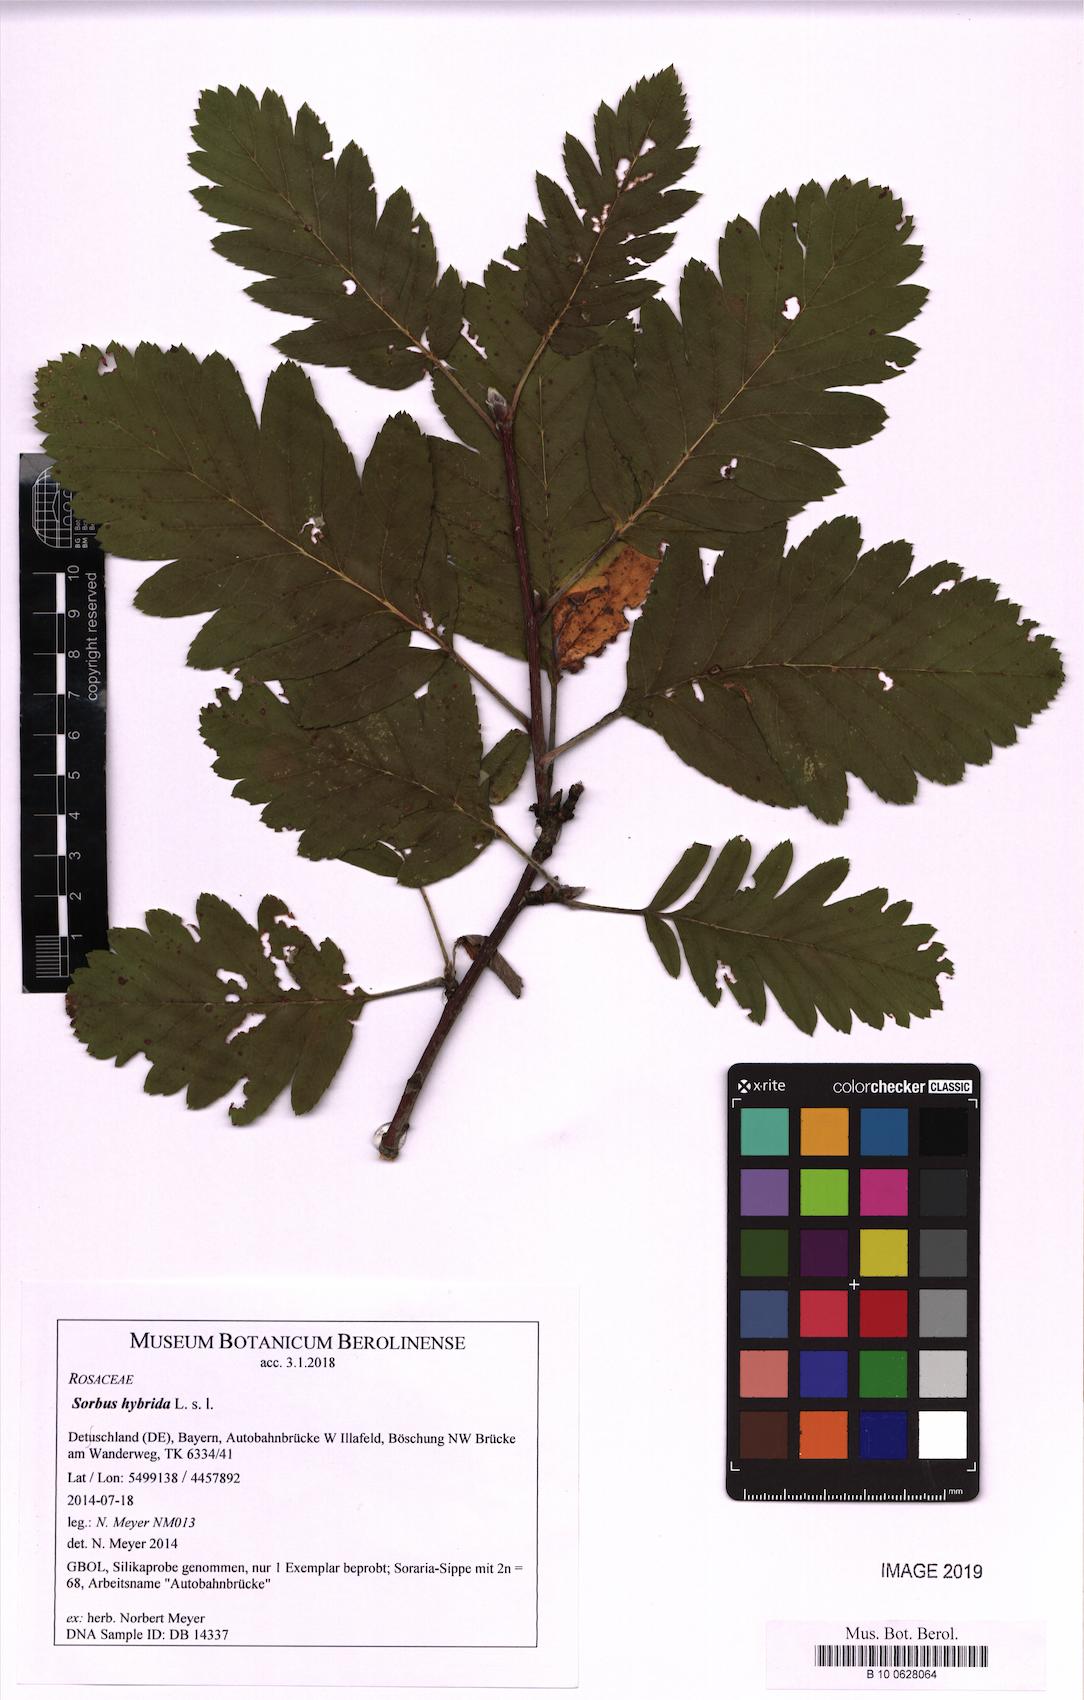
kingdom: Plantae
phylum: Tracheophyta
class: Magnoliopsida
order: Rosales
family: Rosaceae
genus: Hedlundia
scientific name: Hedlundia hybrida
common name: Swedish service-tree
